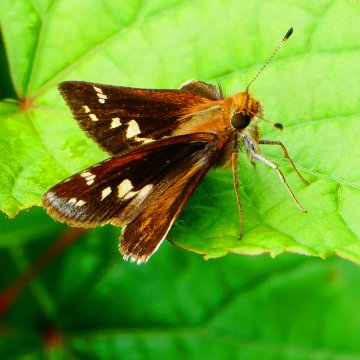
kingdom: Animalia
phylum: Arthropoda
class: Insecta
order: Lepidoptera
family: Hesperiidae
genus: Lon
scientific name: Lon zabulon
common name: Zabulon Skipper
